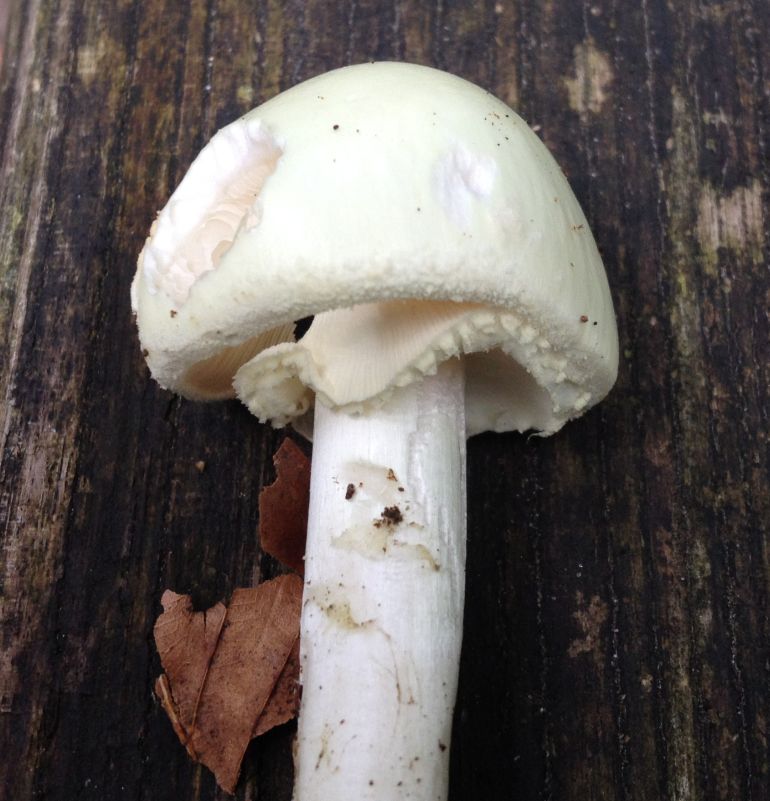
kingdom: Fungi
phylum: Basidiomycota
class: Agaricomycetes
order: Agaricales
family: Amanitaceae
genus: Amanita
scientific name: Amanita citrina
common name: kugleknoldet fluesvamp
